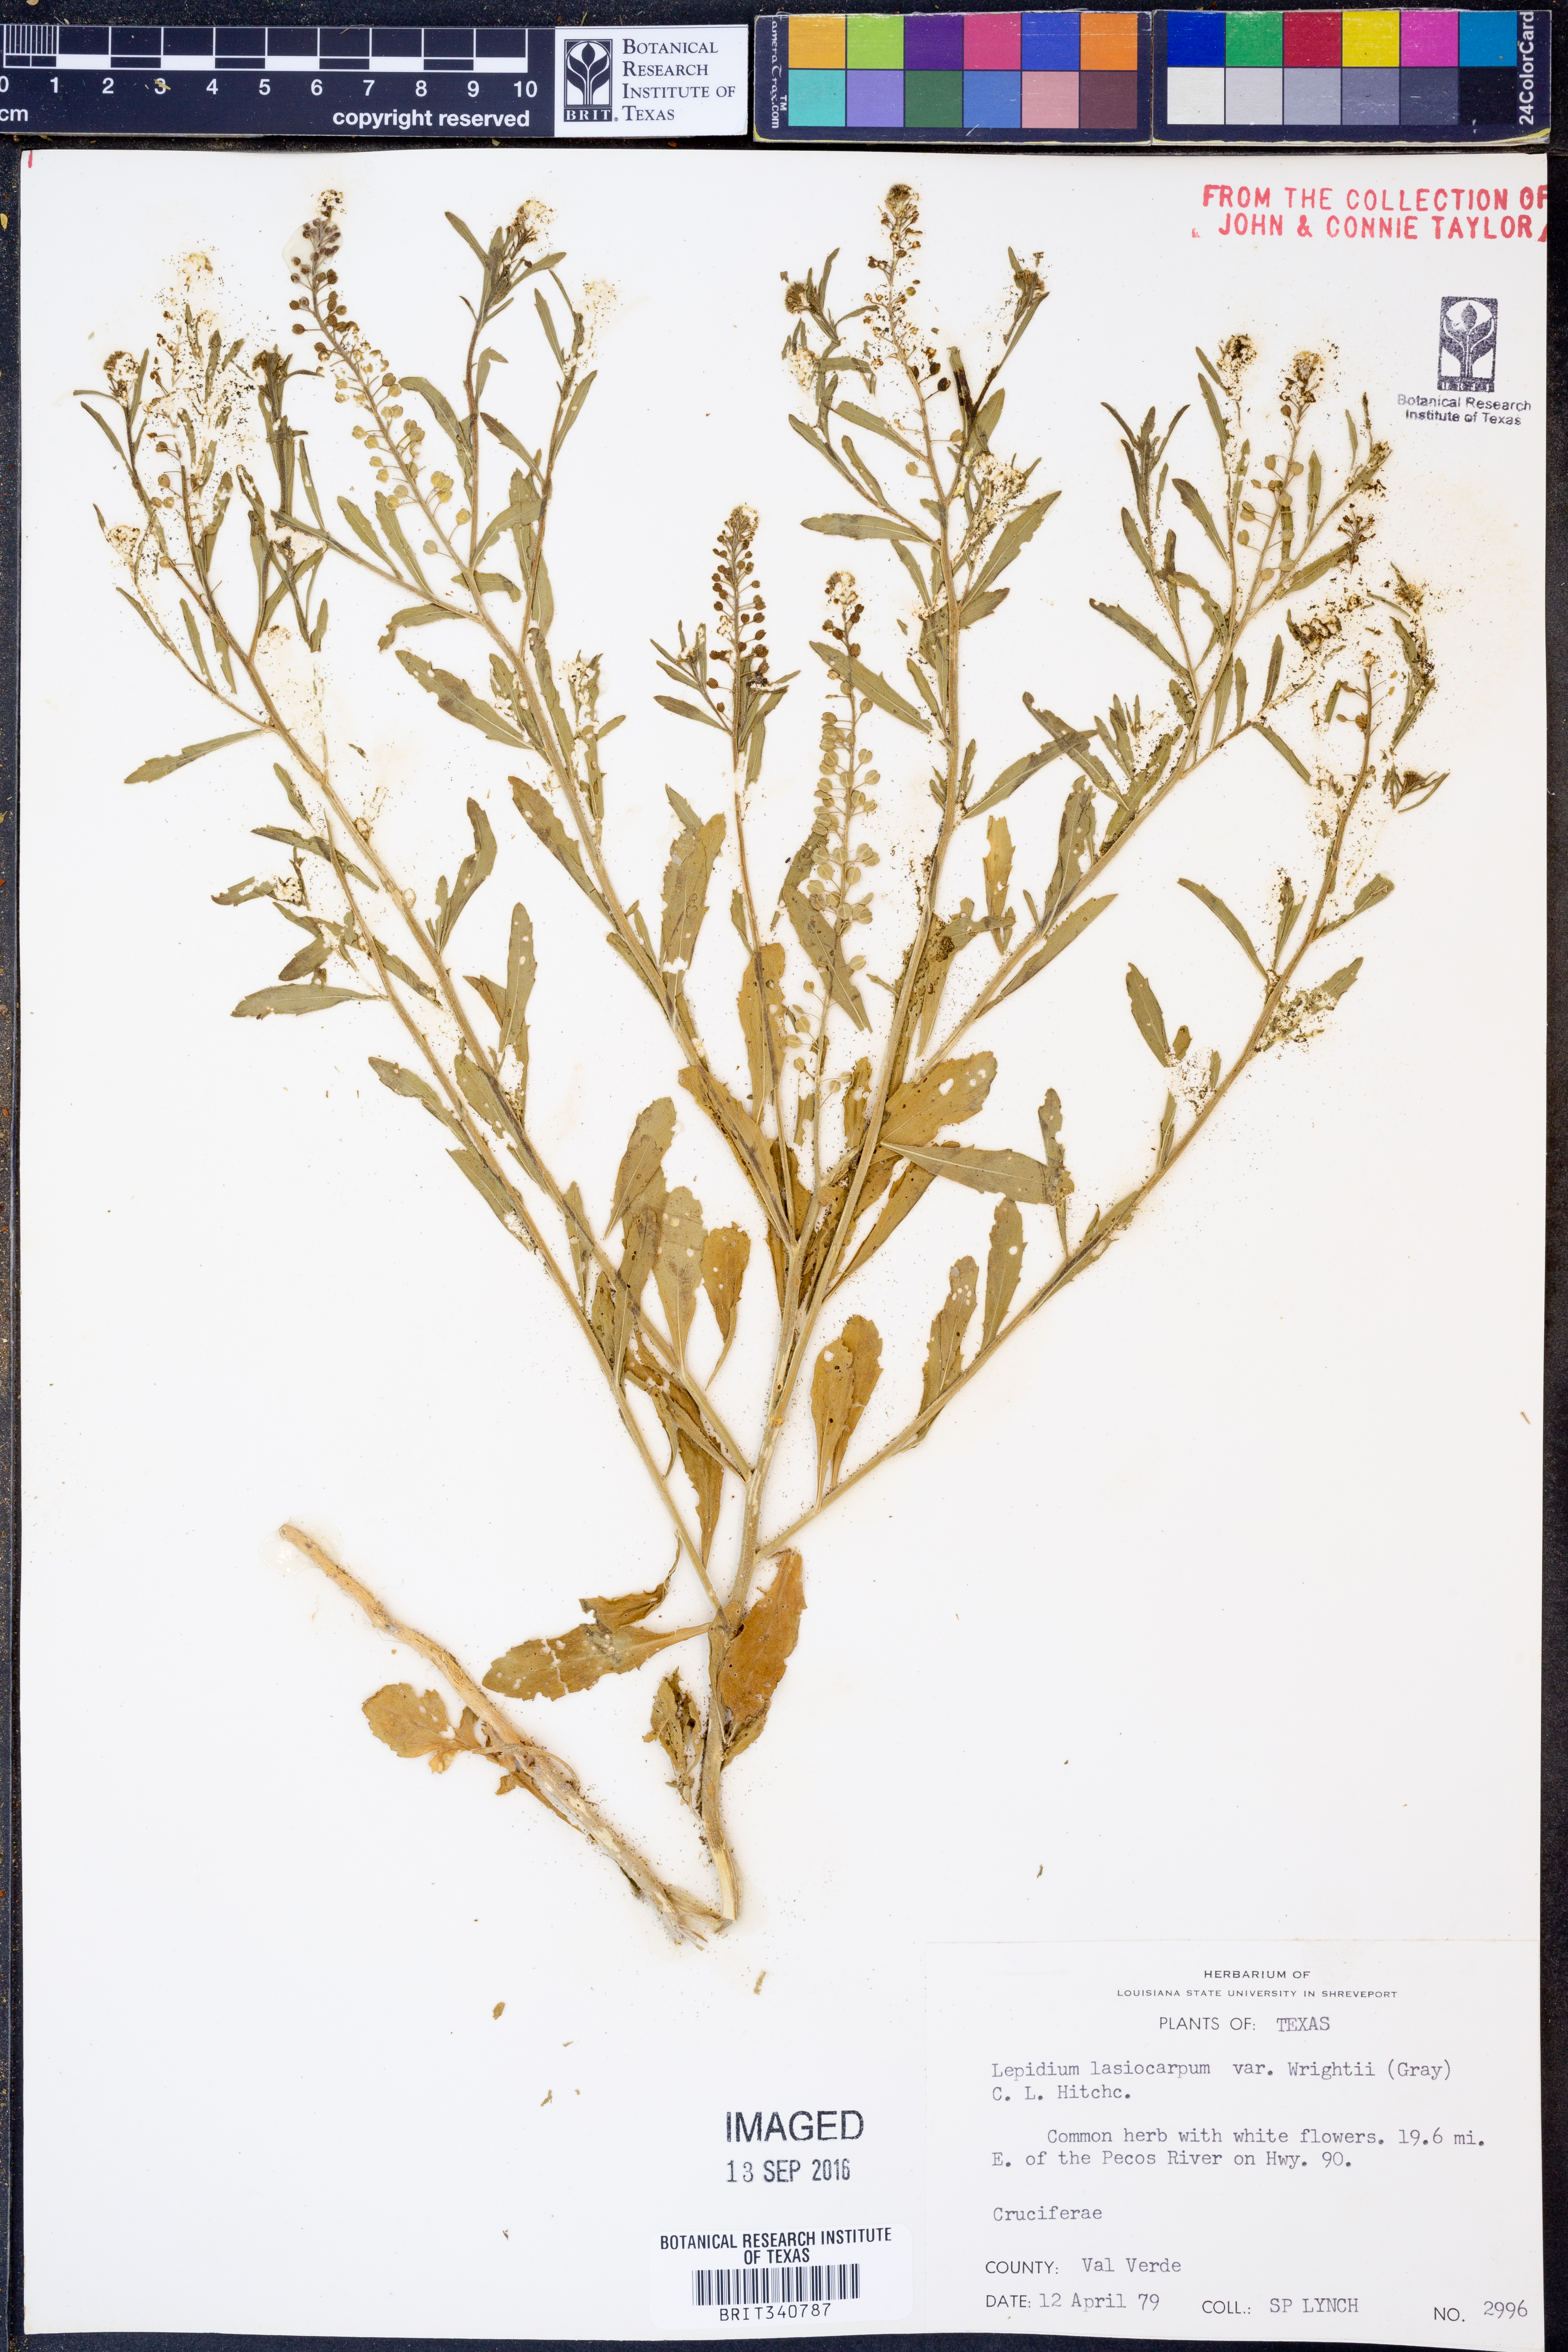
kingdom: Plantae
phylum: Tracheophyta
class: Magnoliopsida
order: Brassicales
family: Brassicaceae
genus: Lepidium
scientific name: Lepidium lasiocarpum
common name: Hairy-pod pepperwort
